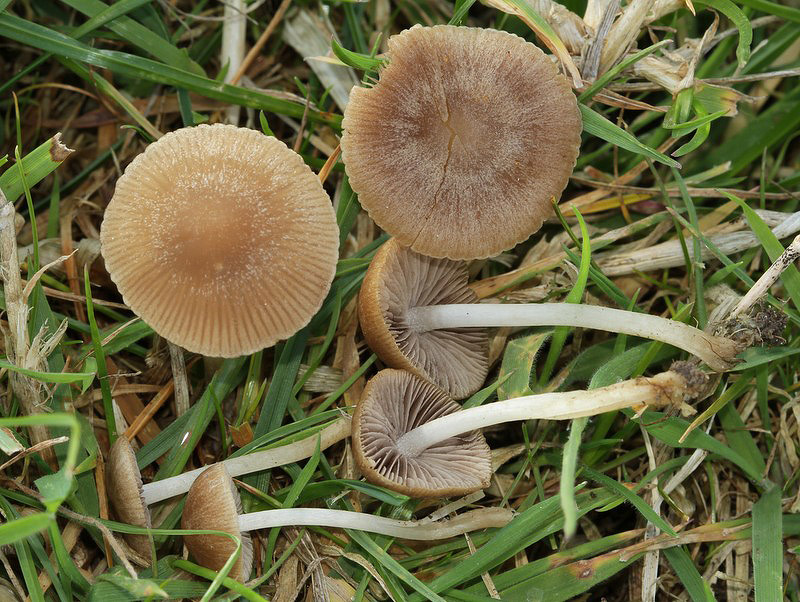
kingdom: Fungi
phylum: Basidiomycota
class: Agaricomycetes
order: Agaricales
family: Psathyrellaceae
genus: Psathyrella
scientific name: Psathyrella clivensis
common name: eng-mørkhat
